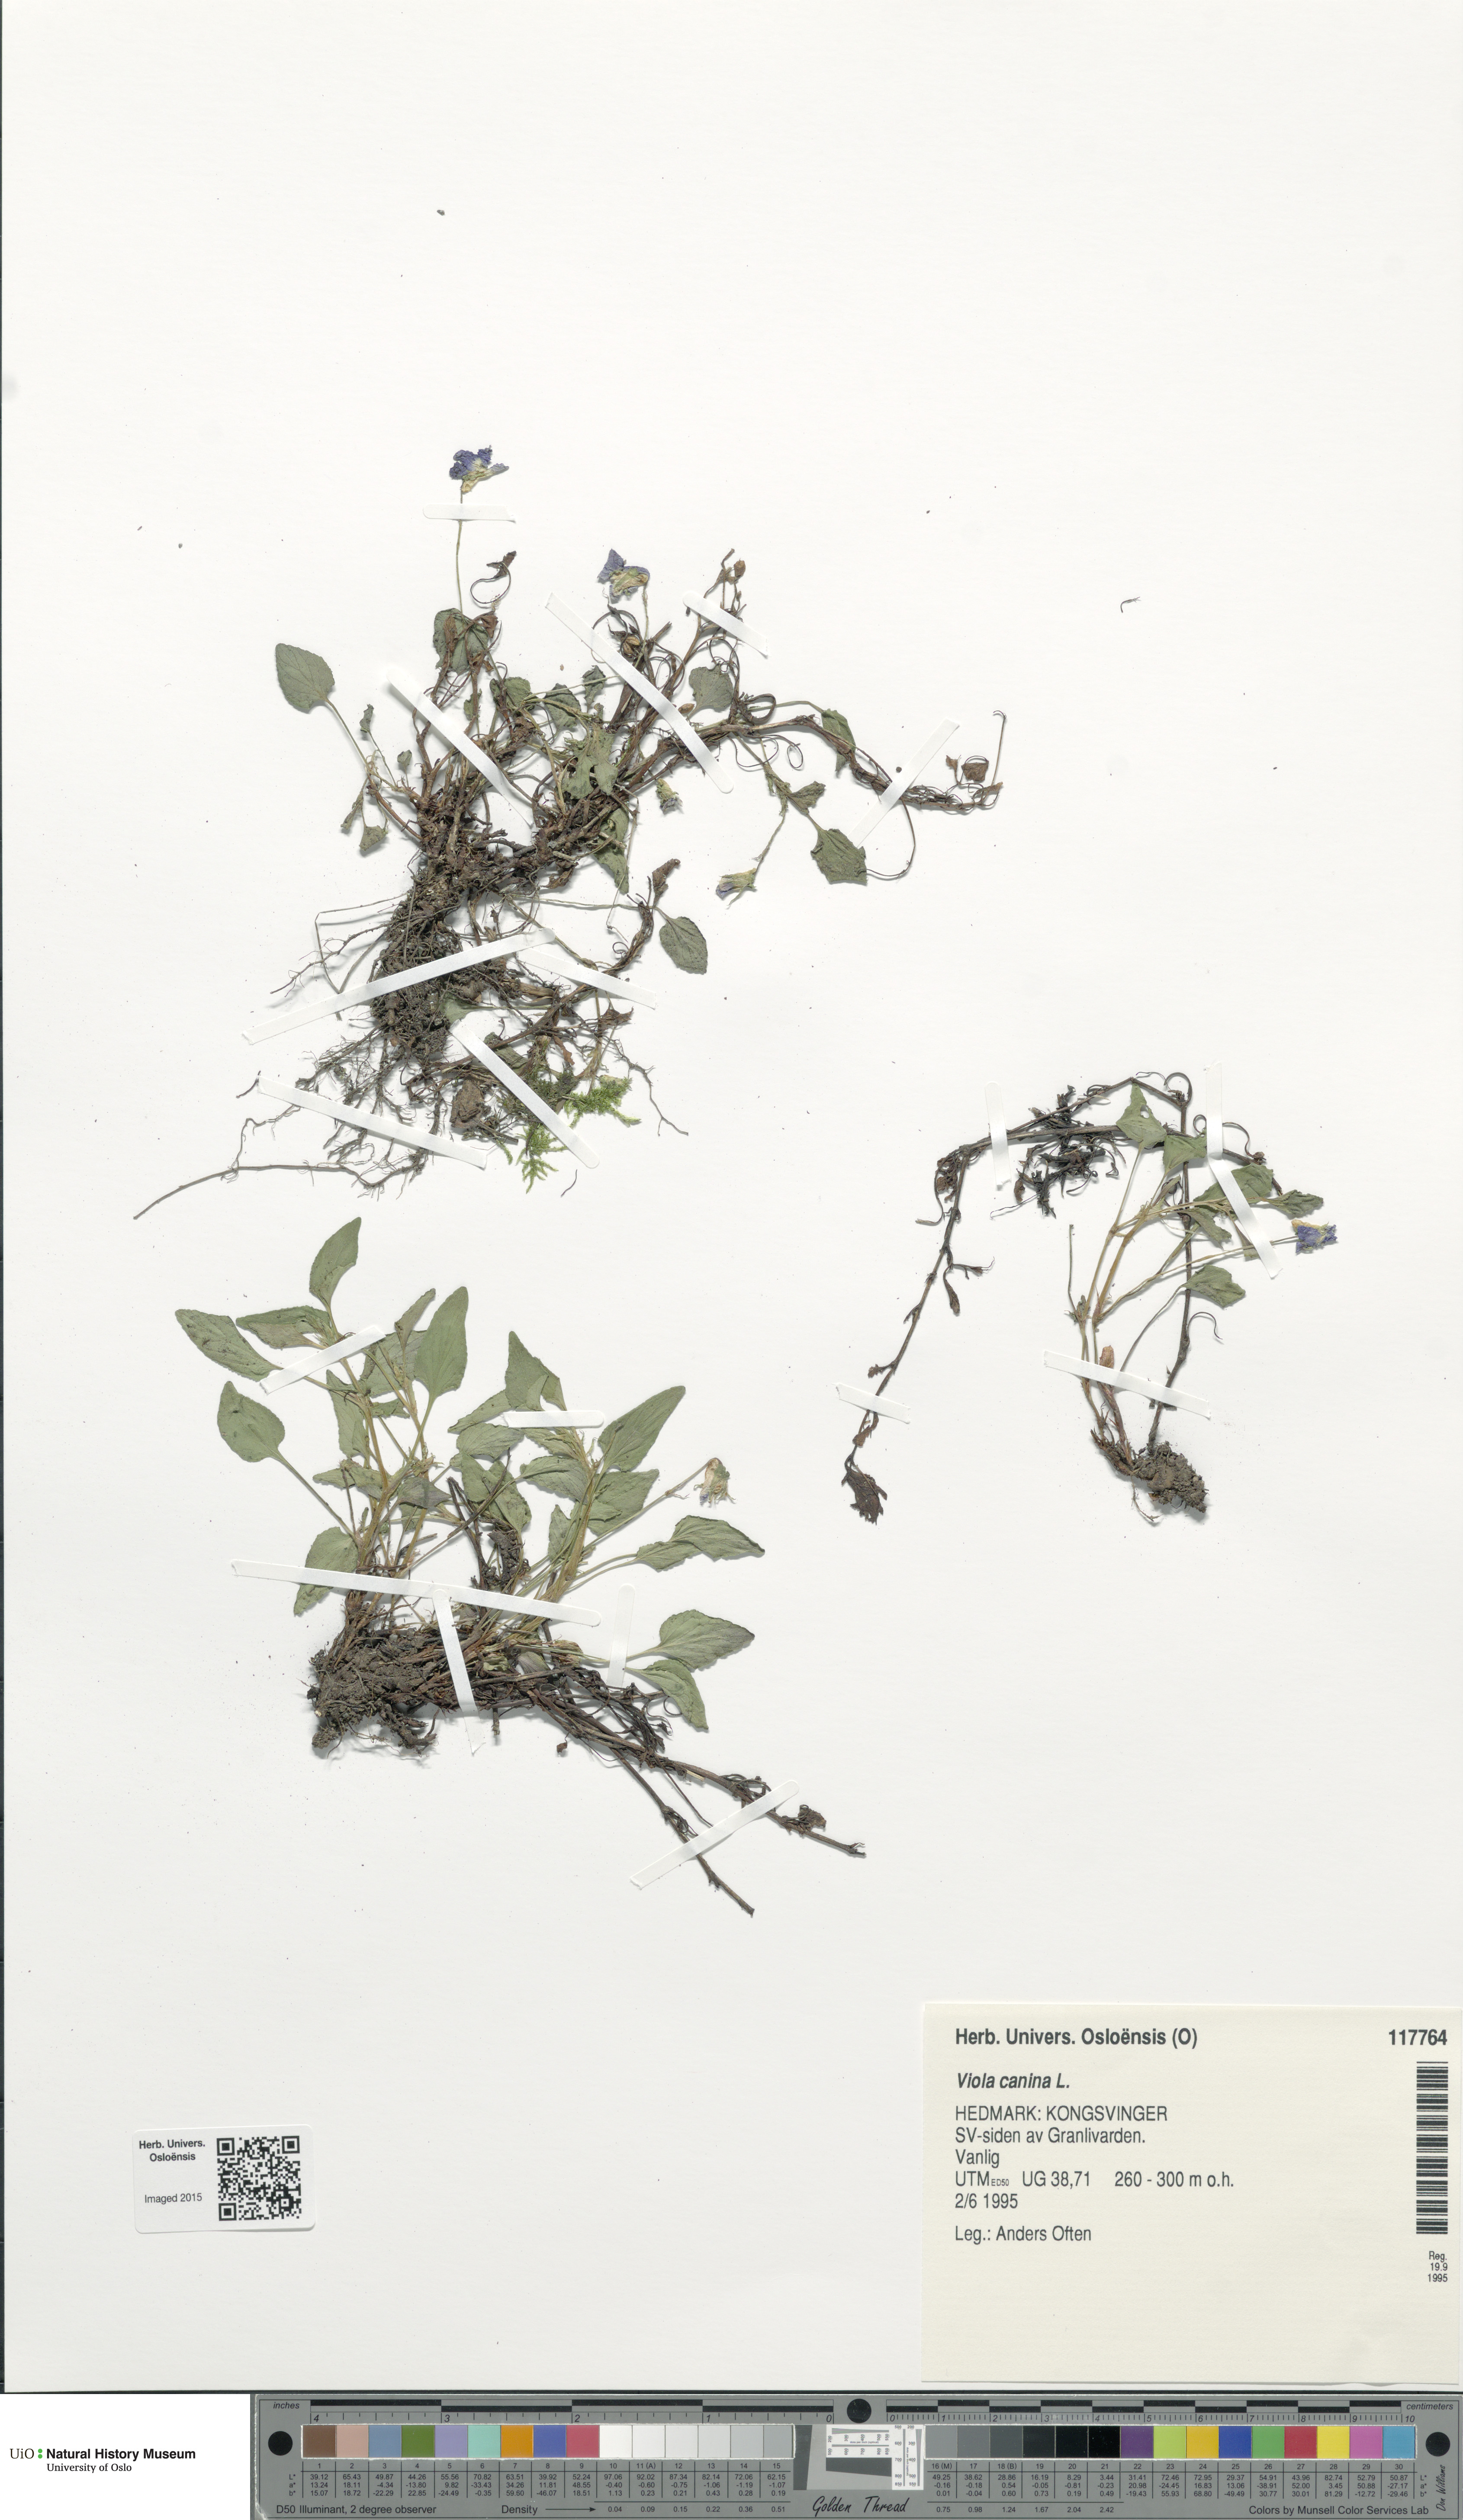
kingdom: Plantae
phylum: Tracheophyta
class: Magnoliopsida
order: Malpighiales
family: Violaceae
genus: Viola
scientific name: Viola canina
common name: Heath dog-violet
